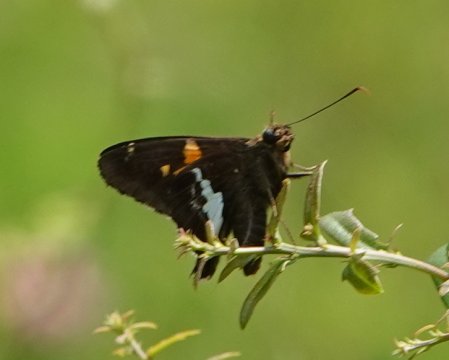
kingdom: Animalia
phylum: Arthropoda
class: Insecta
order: Lepidoptera
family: Hesperiidae
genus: Urbanus
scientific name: Urbanus proteus
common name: Long-tailed Skipper
